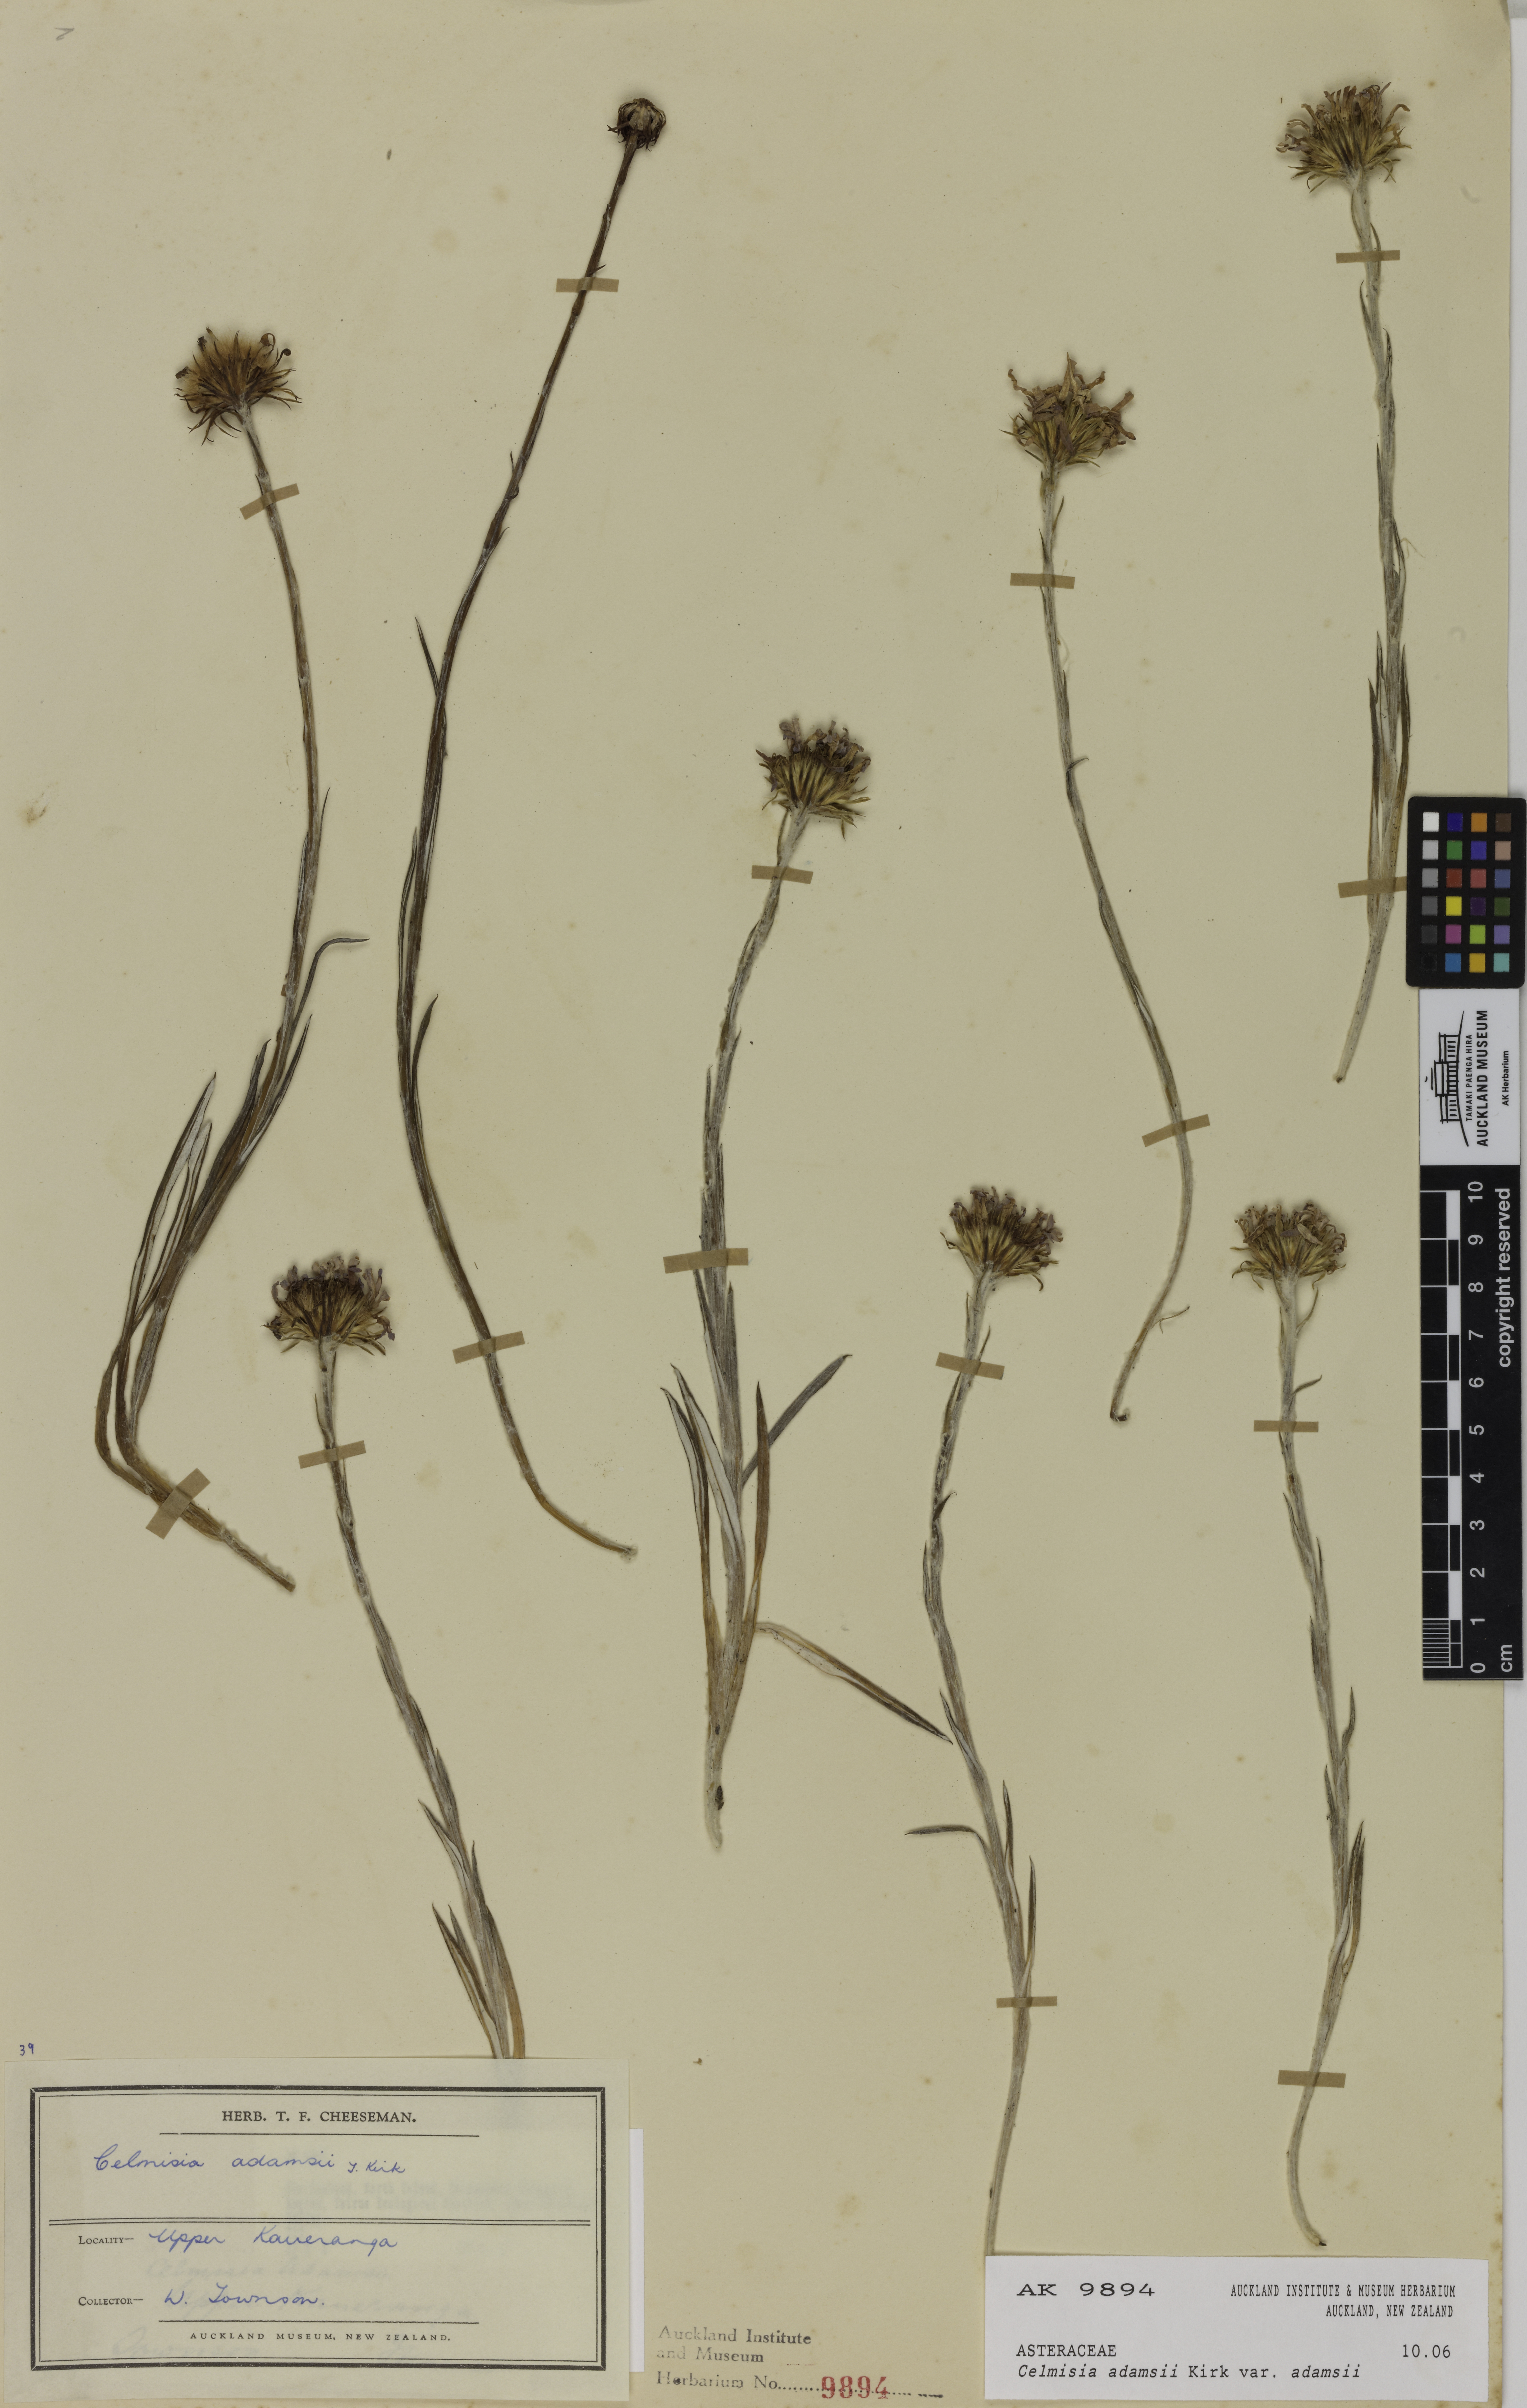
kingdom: Plantae
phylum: Tracheophyta
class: Magnoliopsida
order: Asterales
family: Asteraceae
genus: Celmisia
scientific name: Celmisia adamsii
